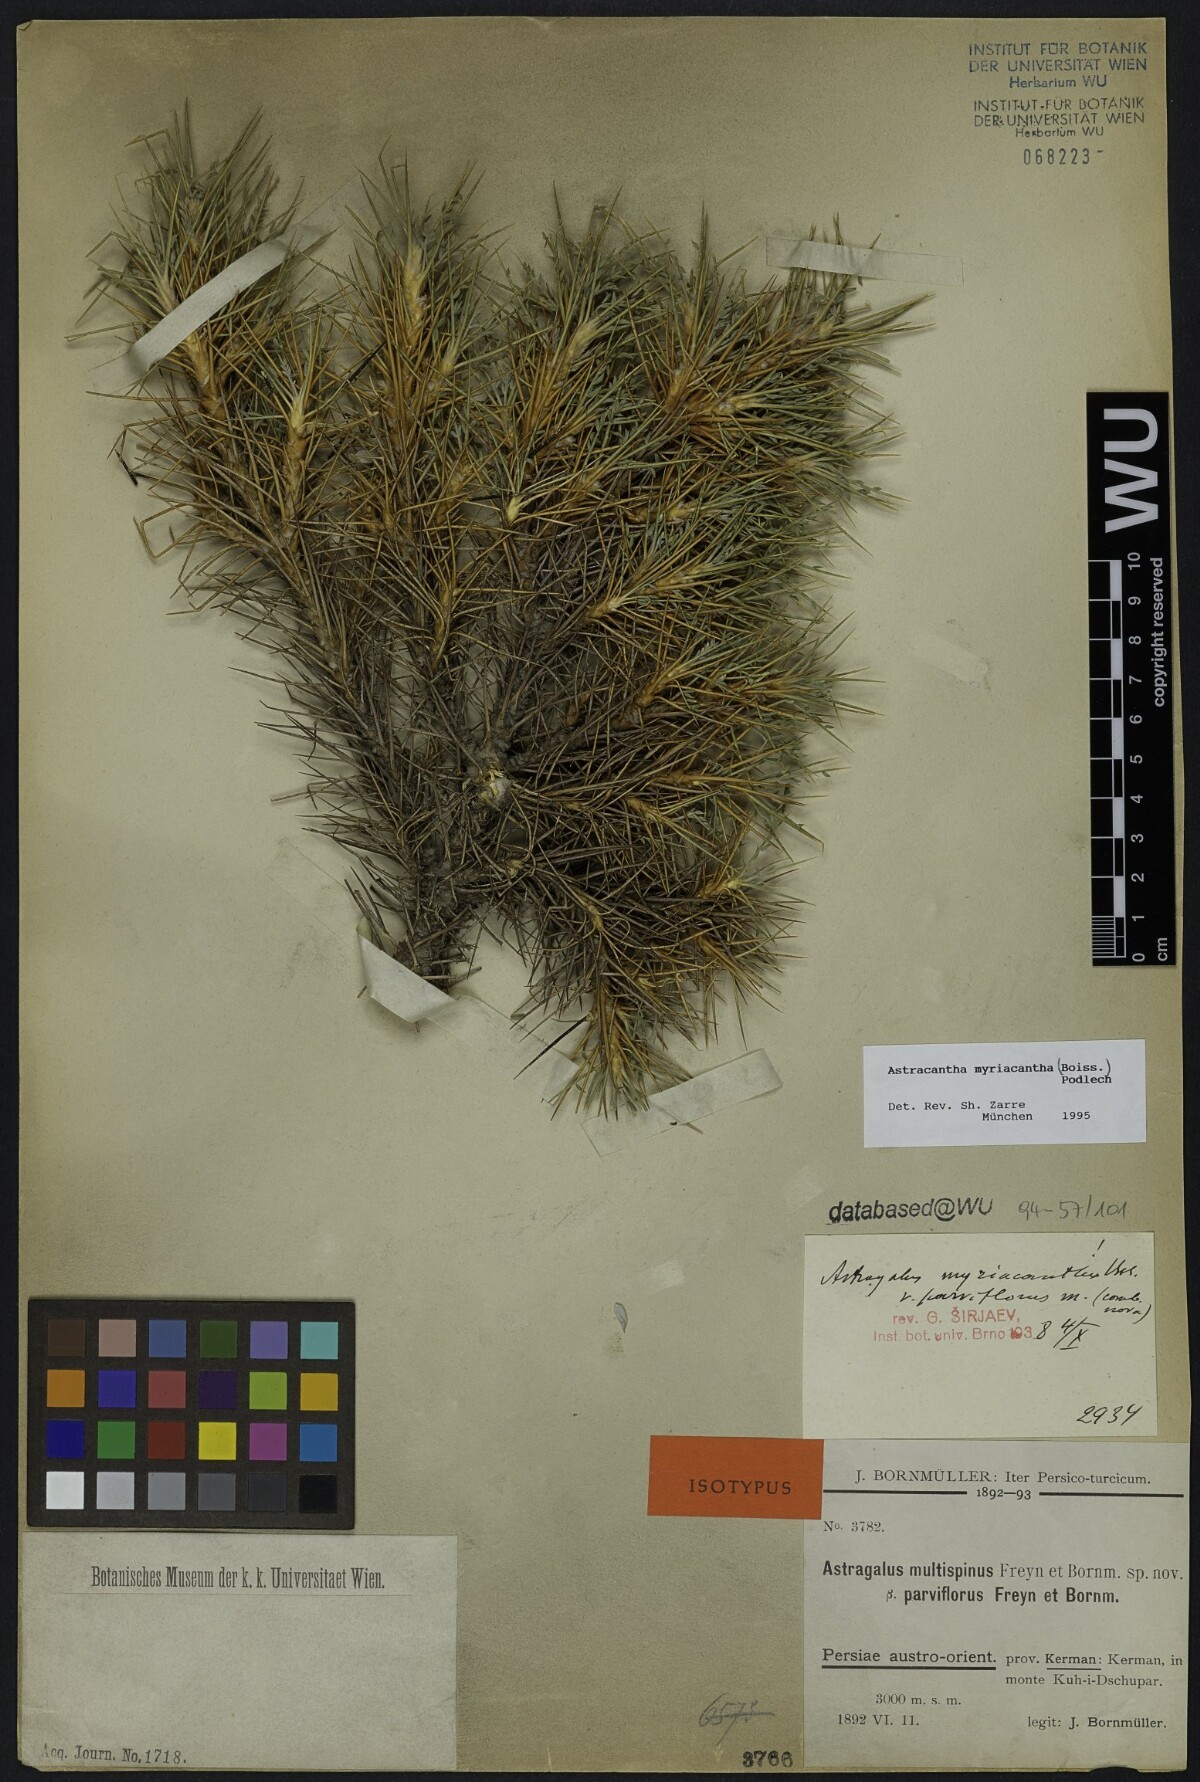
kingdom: Plantae
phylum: Tracheophyta
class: Magnoliopsida
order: Fabales
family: Fabaceae
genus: Astragalus
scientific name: Astragalus myriacanthus
